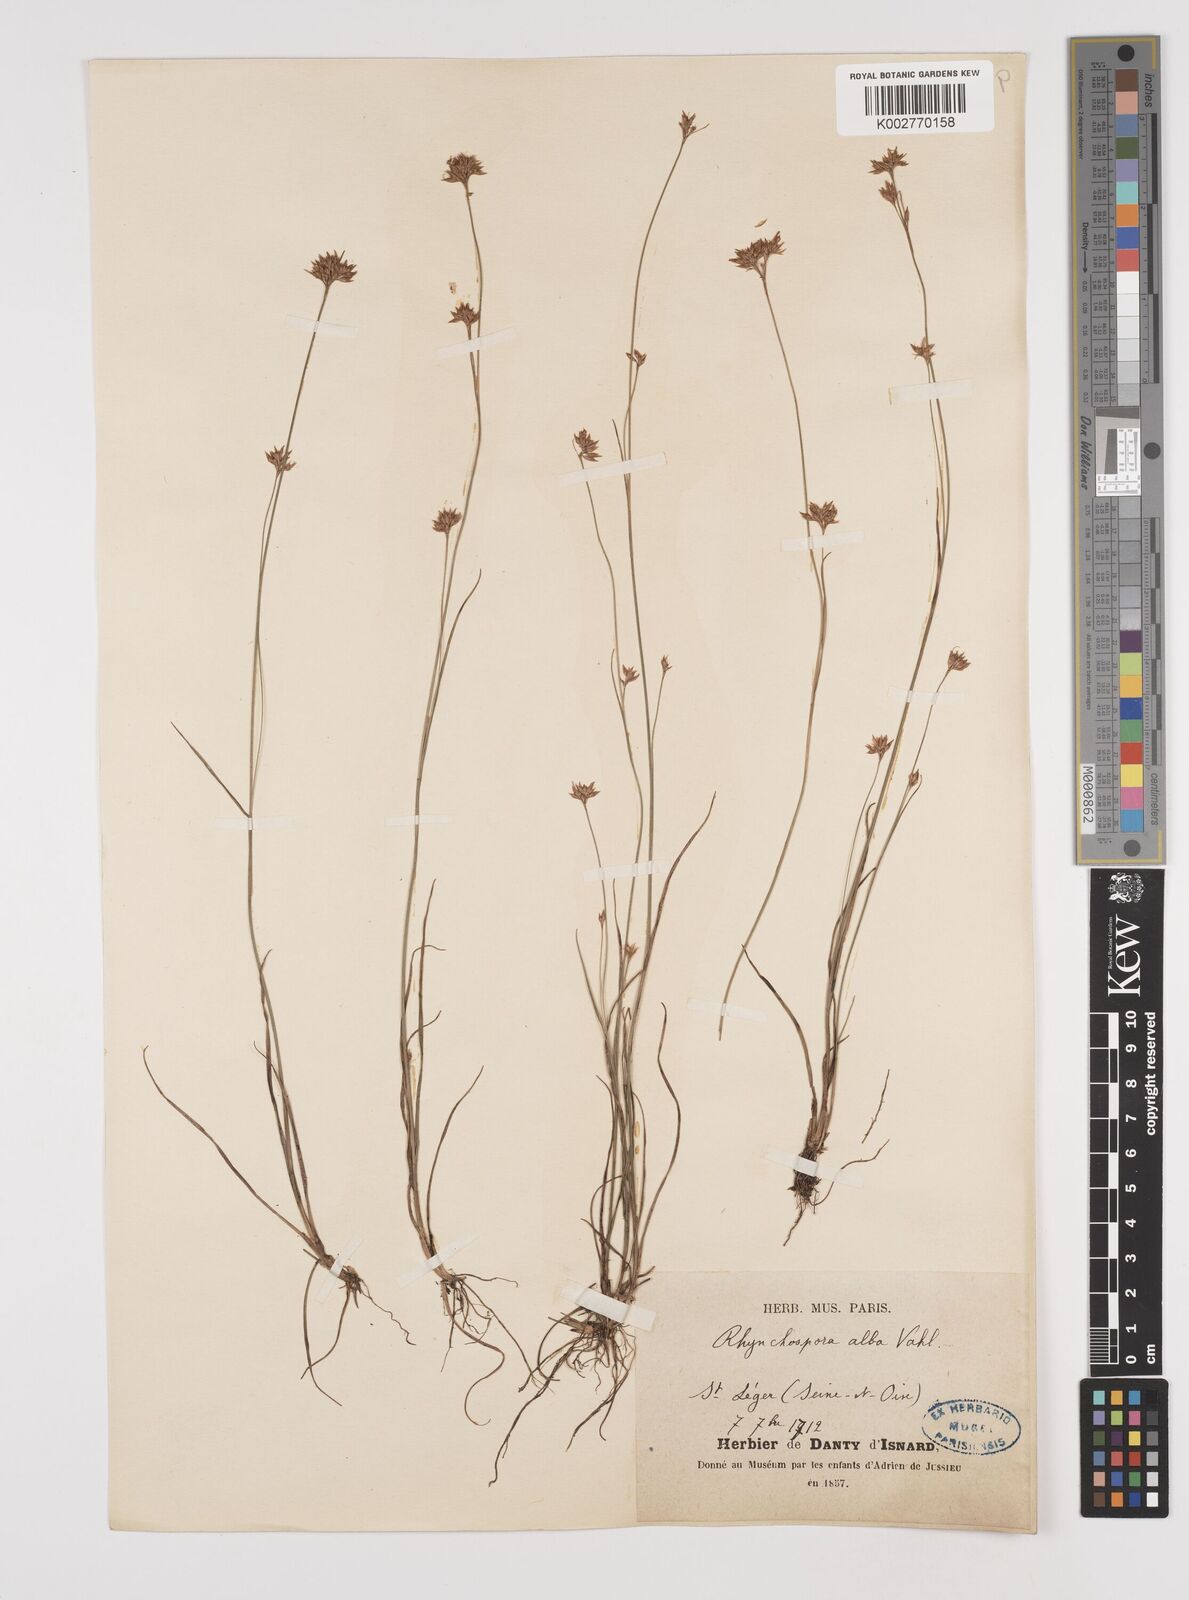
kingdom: Plantae
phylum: Tracheophyta
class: Liliopsida
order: Poales
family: Cyperaceae
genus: Rhynchospora
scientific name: Rhynchospora alba
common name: White beak-sedge
